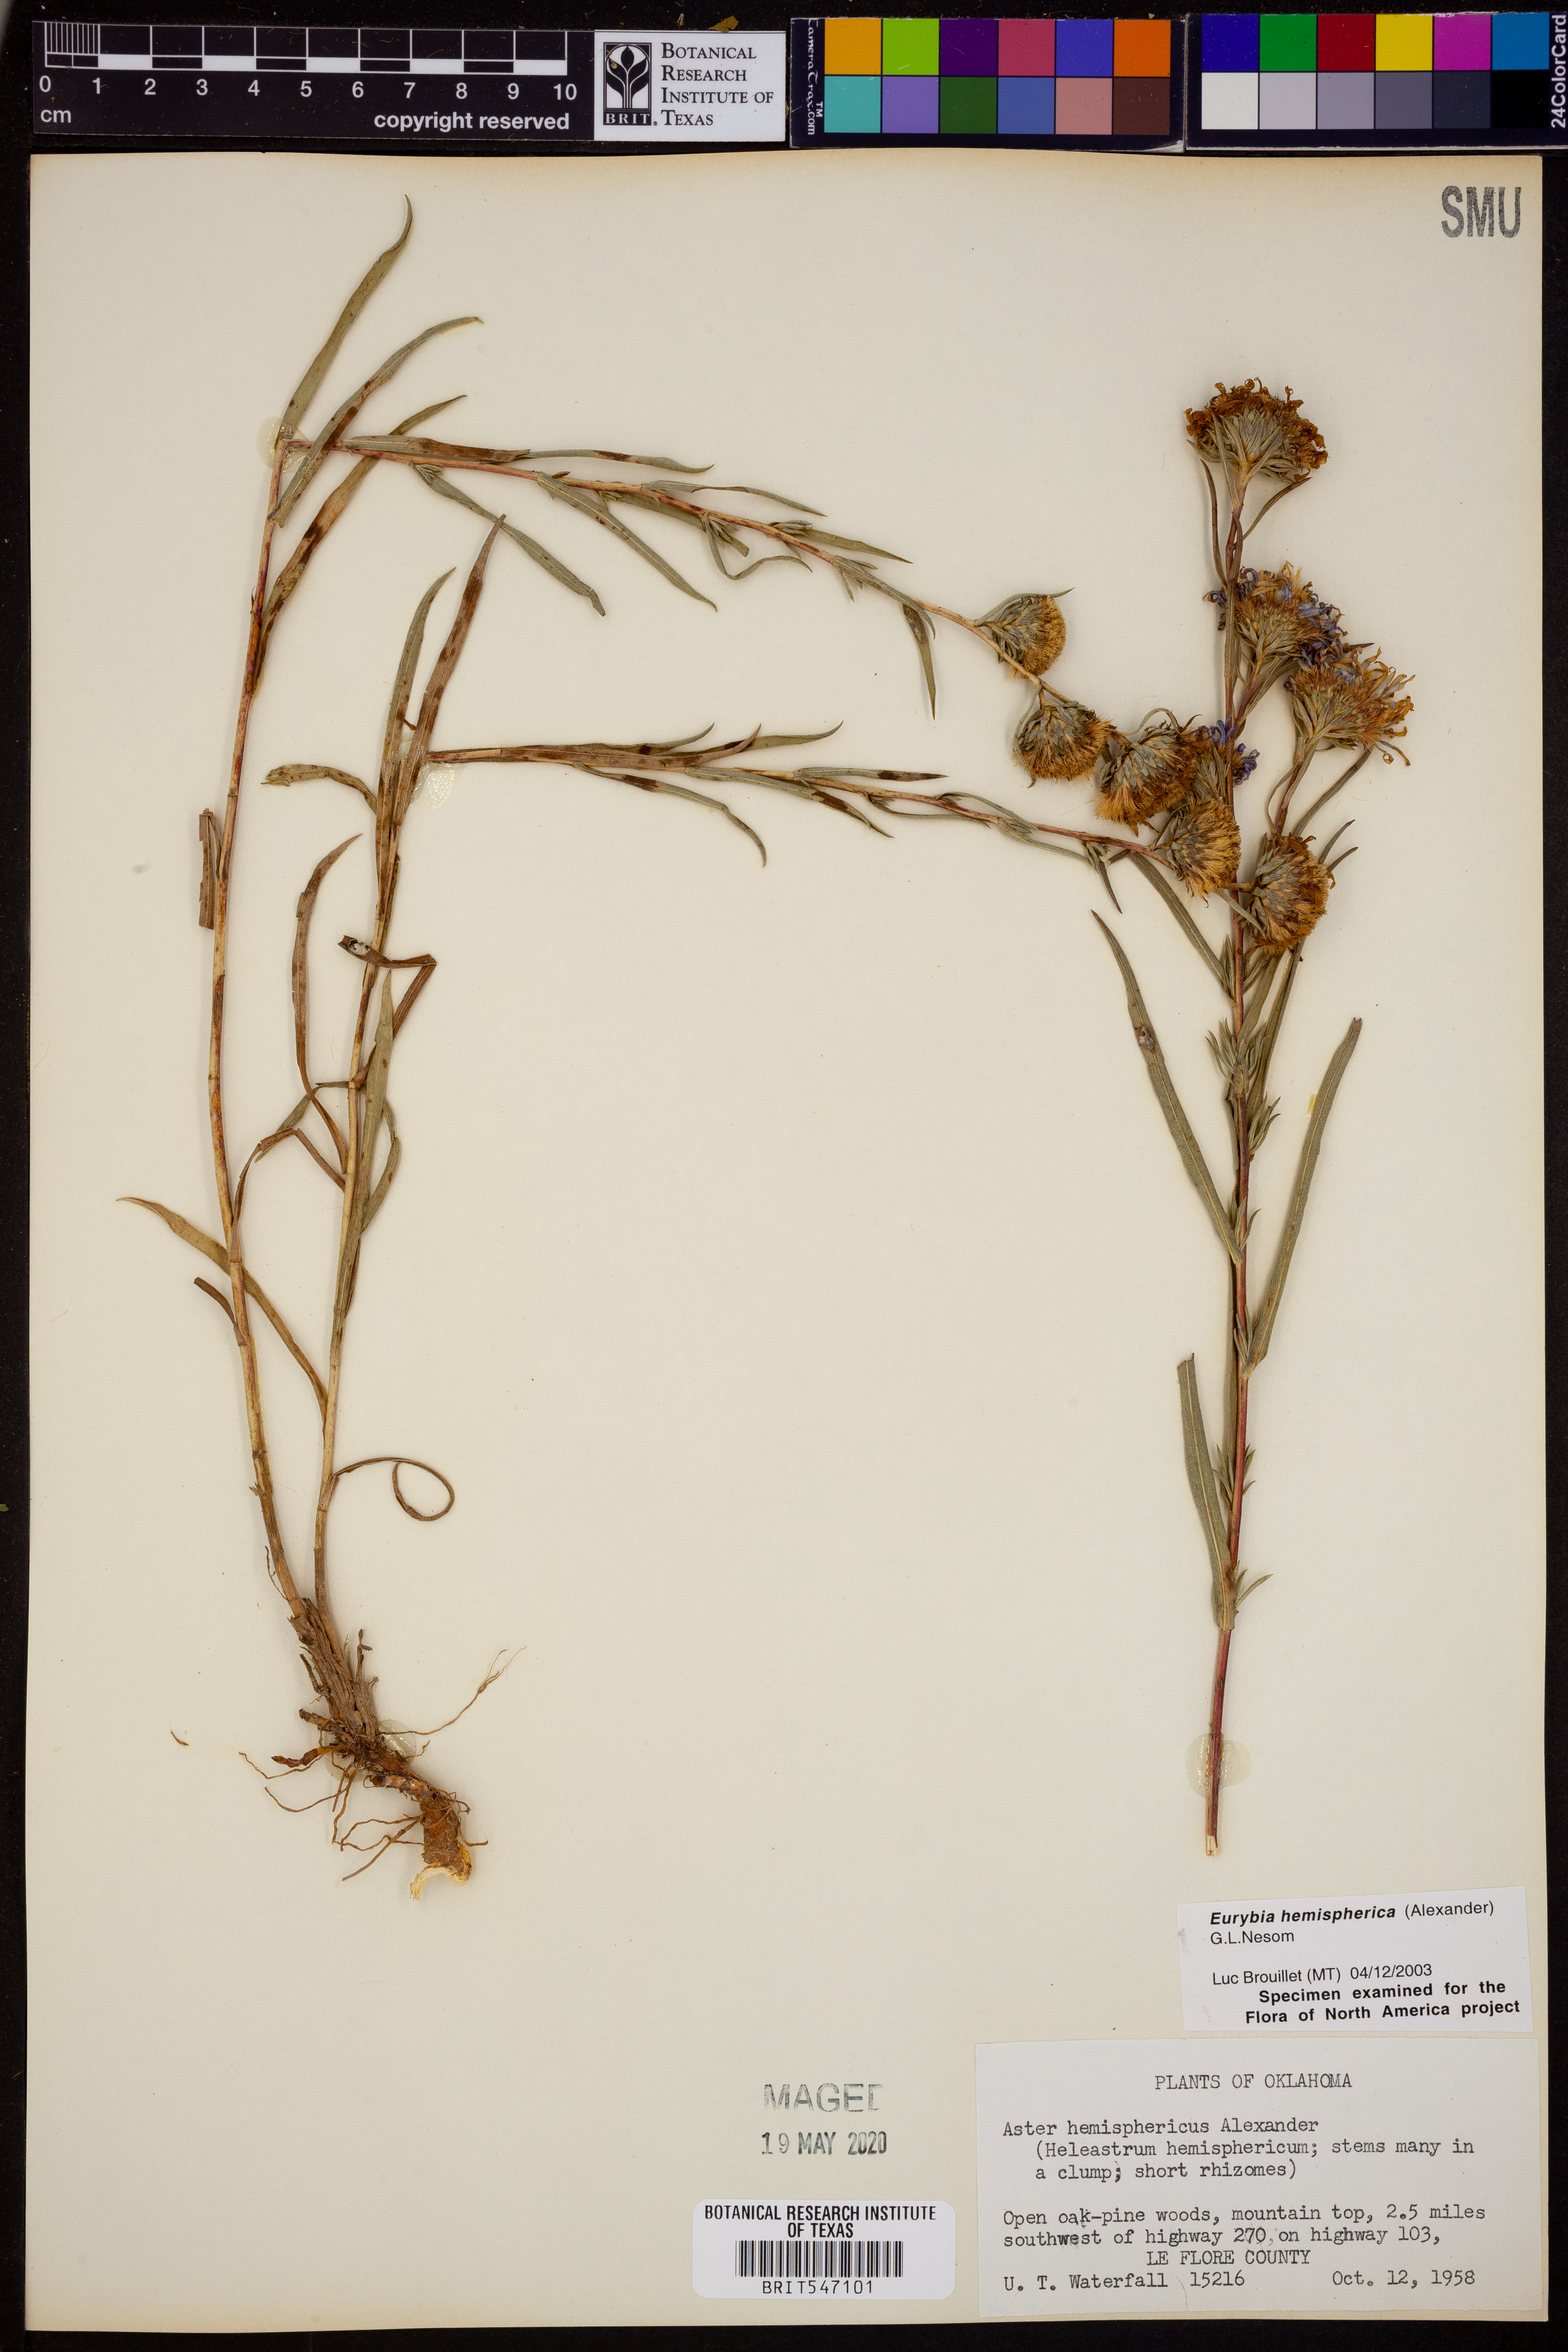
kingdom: Plantae
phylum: Tracheophyta
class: Magnoliopsida
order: Asterales
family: Asteraceae
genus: Eurybia
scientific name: Eurybia hemispherica
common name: Showy aster
